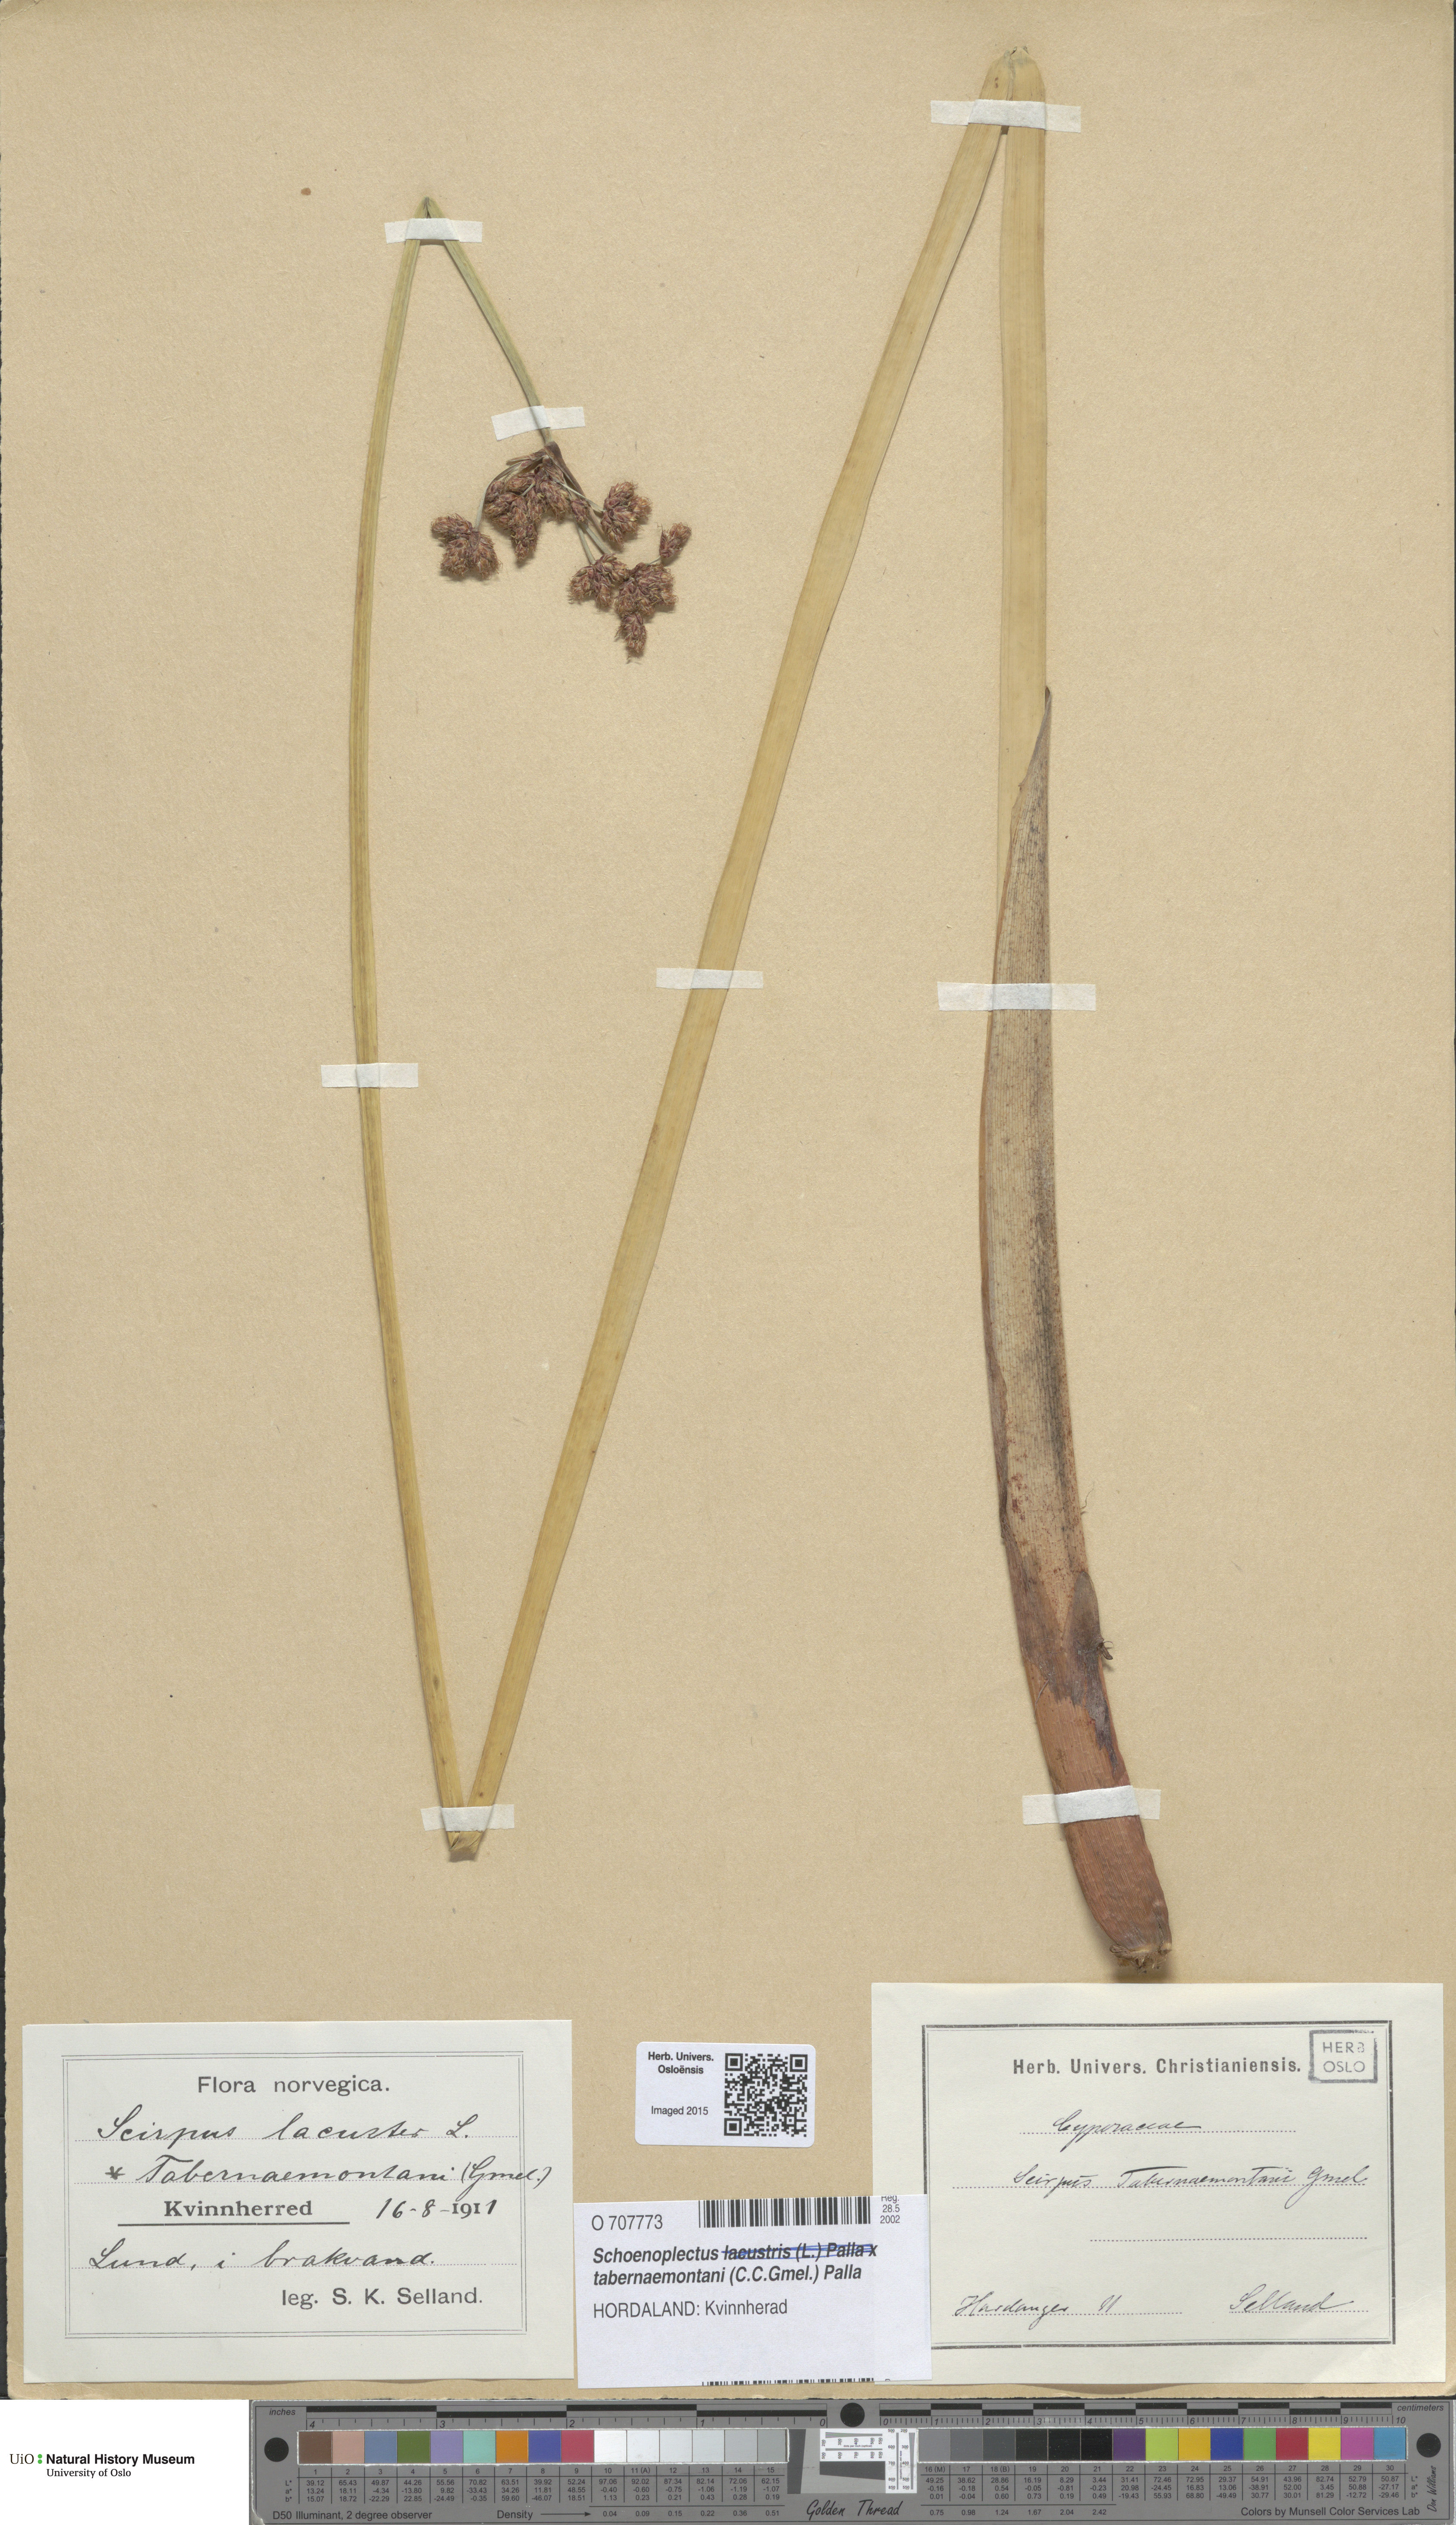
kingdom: Plantae
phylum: Tracheophyta
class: Liliopsida
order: Poales
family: Cyperaceae
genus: Schoenoplectus
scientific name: Schoenoplectus tabernaemontani
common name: Grey club-rush
